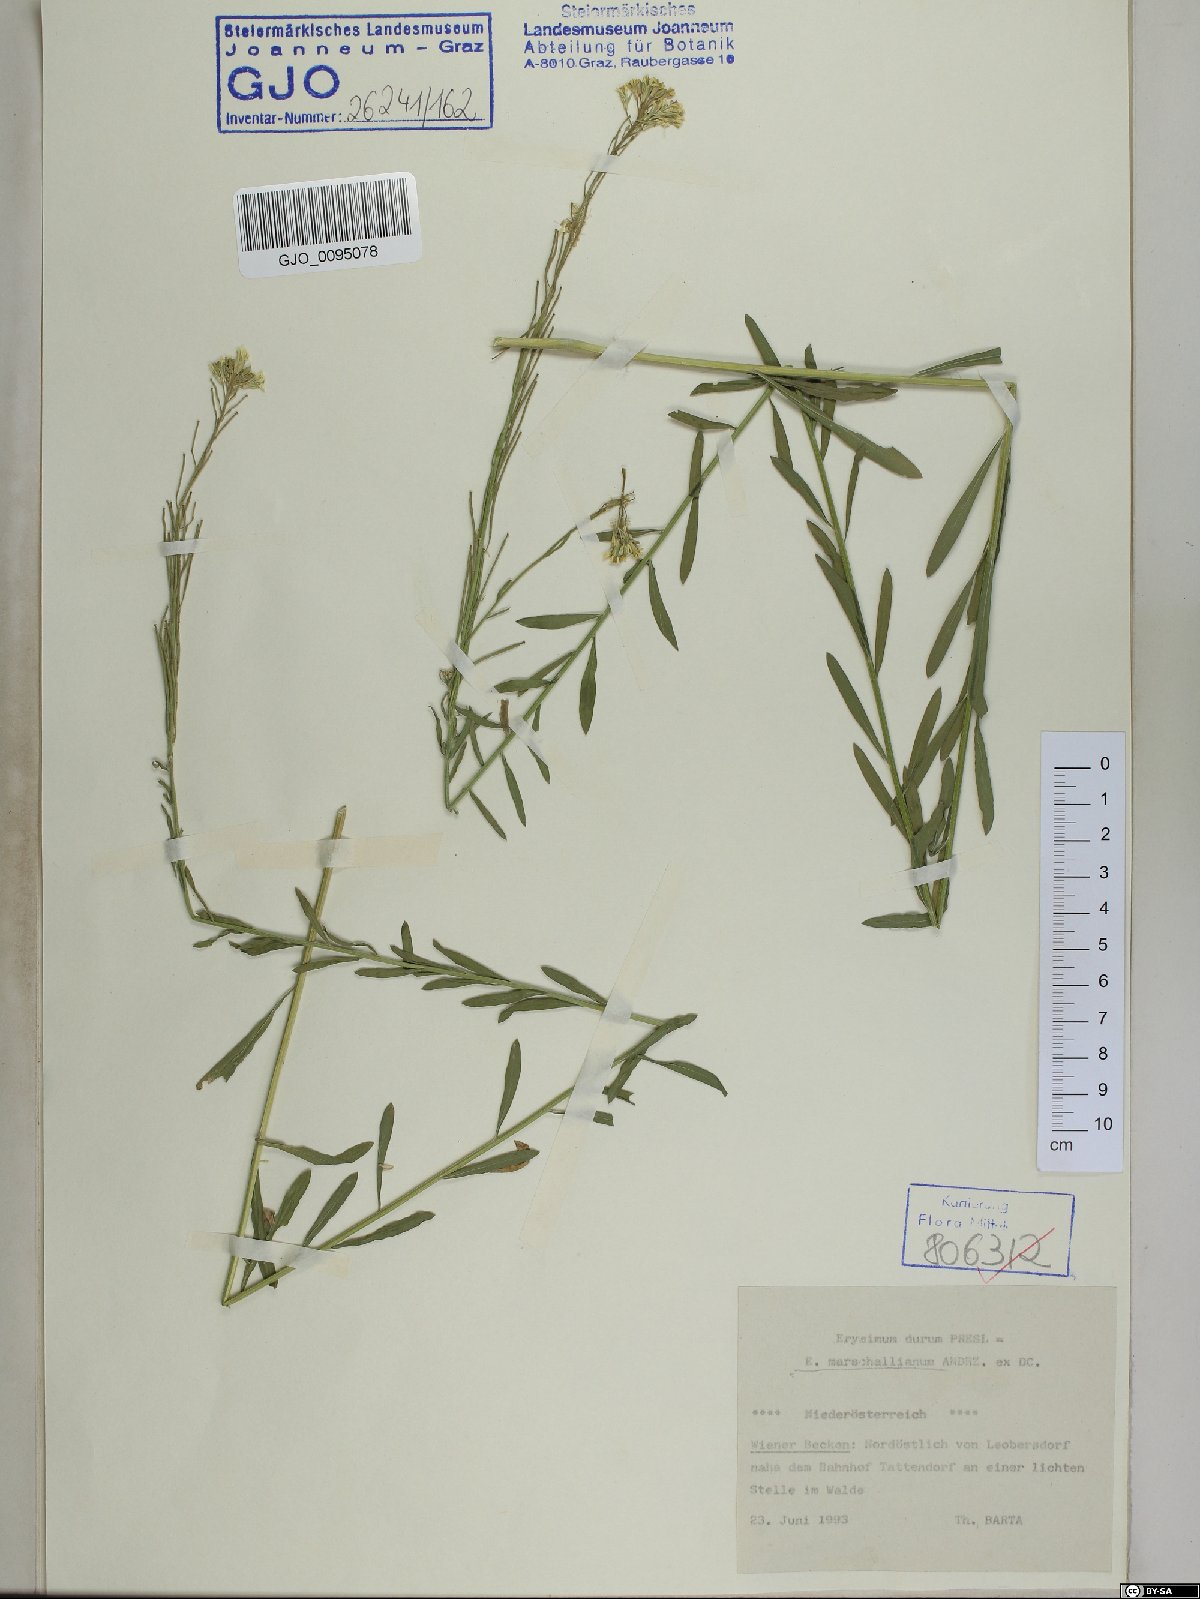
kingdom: Plantae
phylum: Tracheophyta
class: Magnoliopsida
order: Brassicales
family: Brassicaceae
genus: Erysimum
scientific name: Erysimum marschallianum
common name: Hard wallflower
